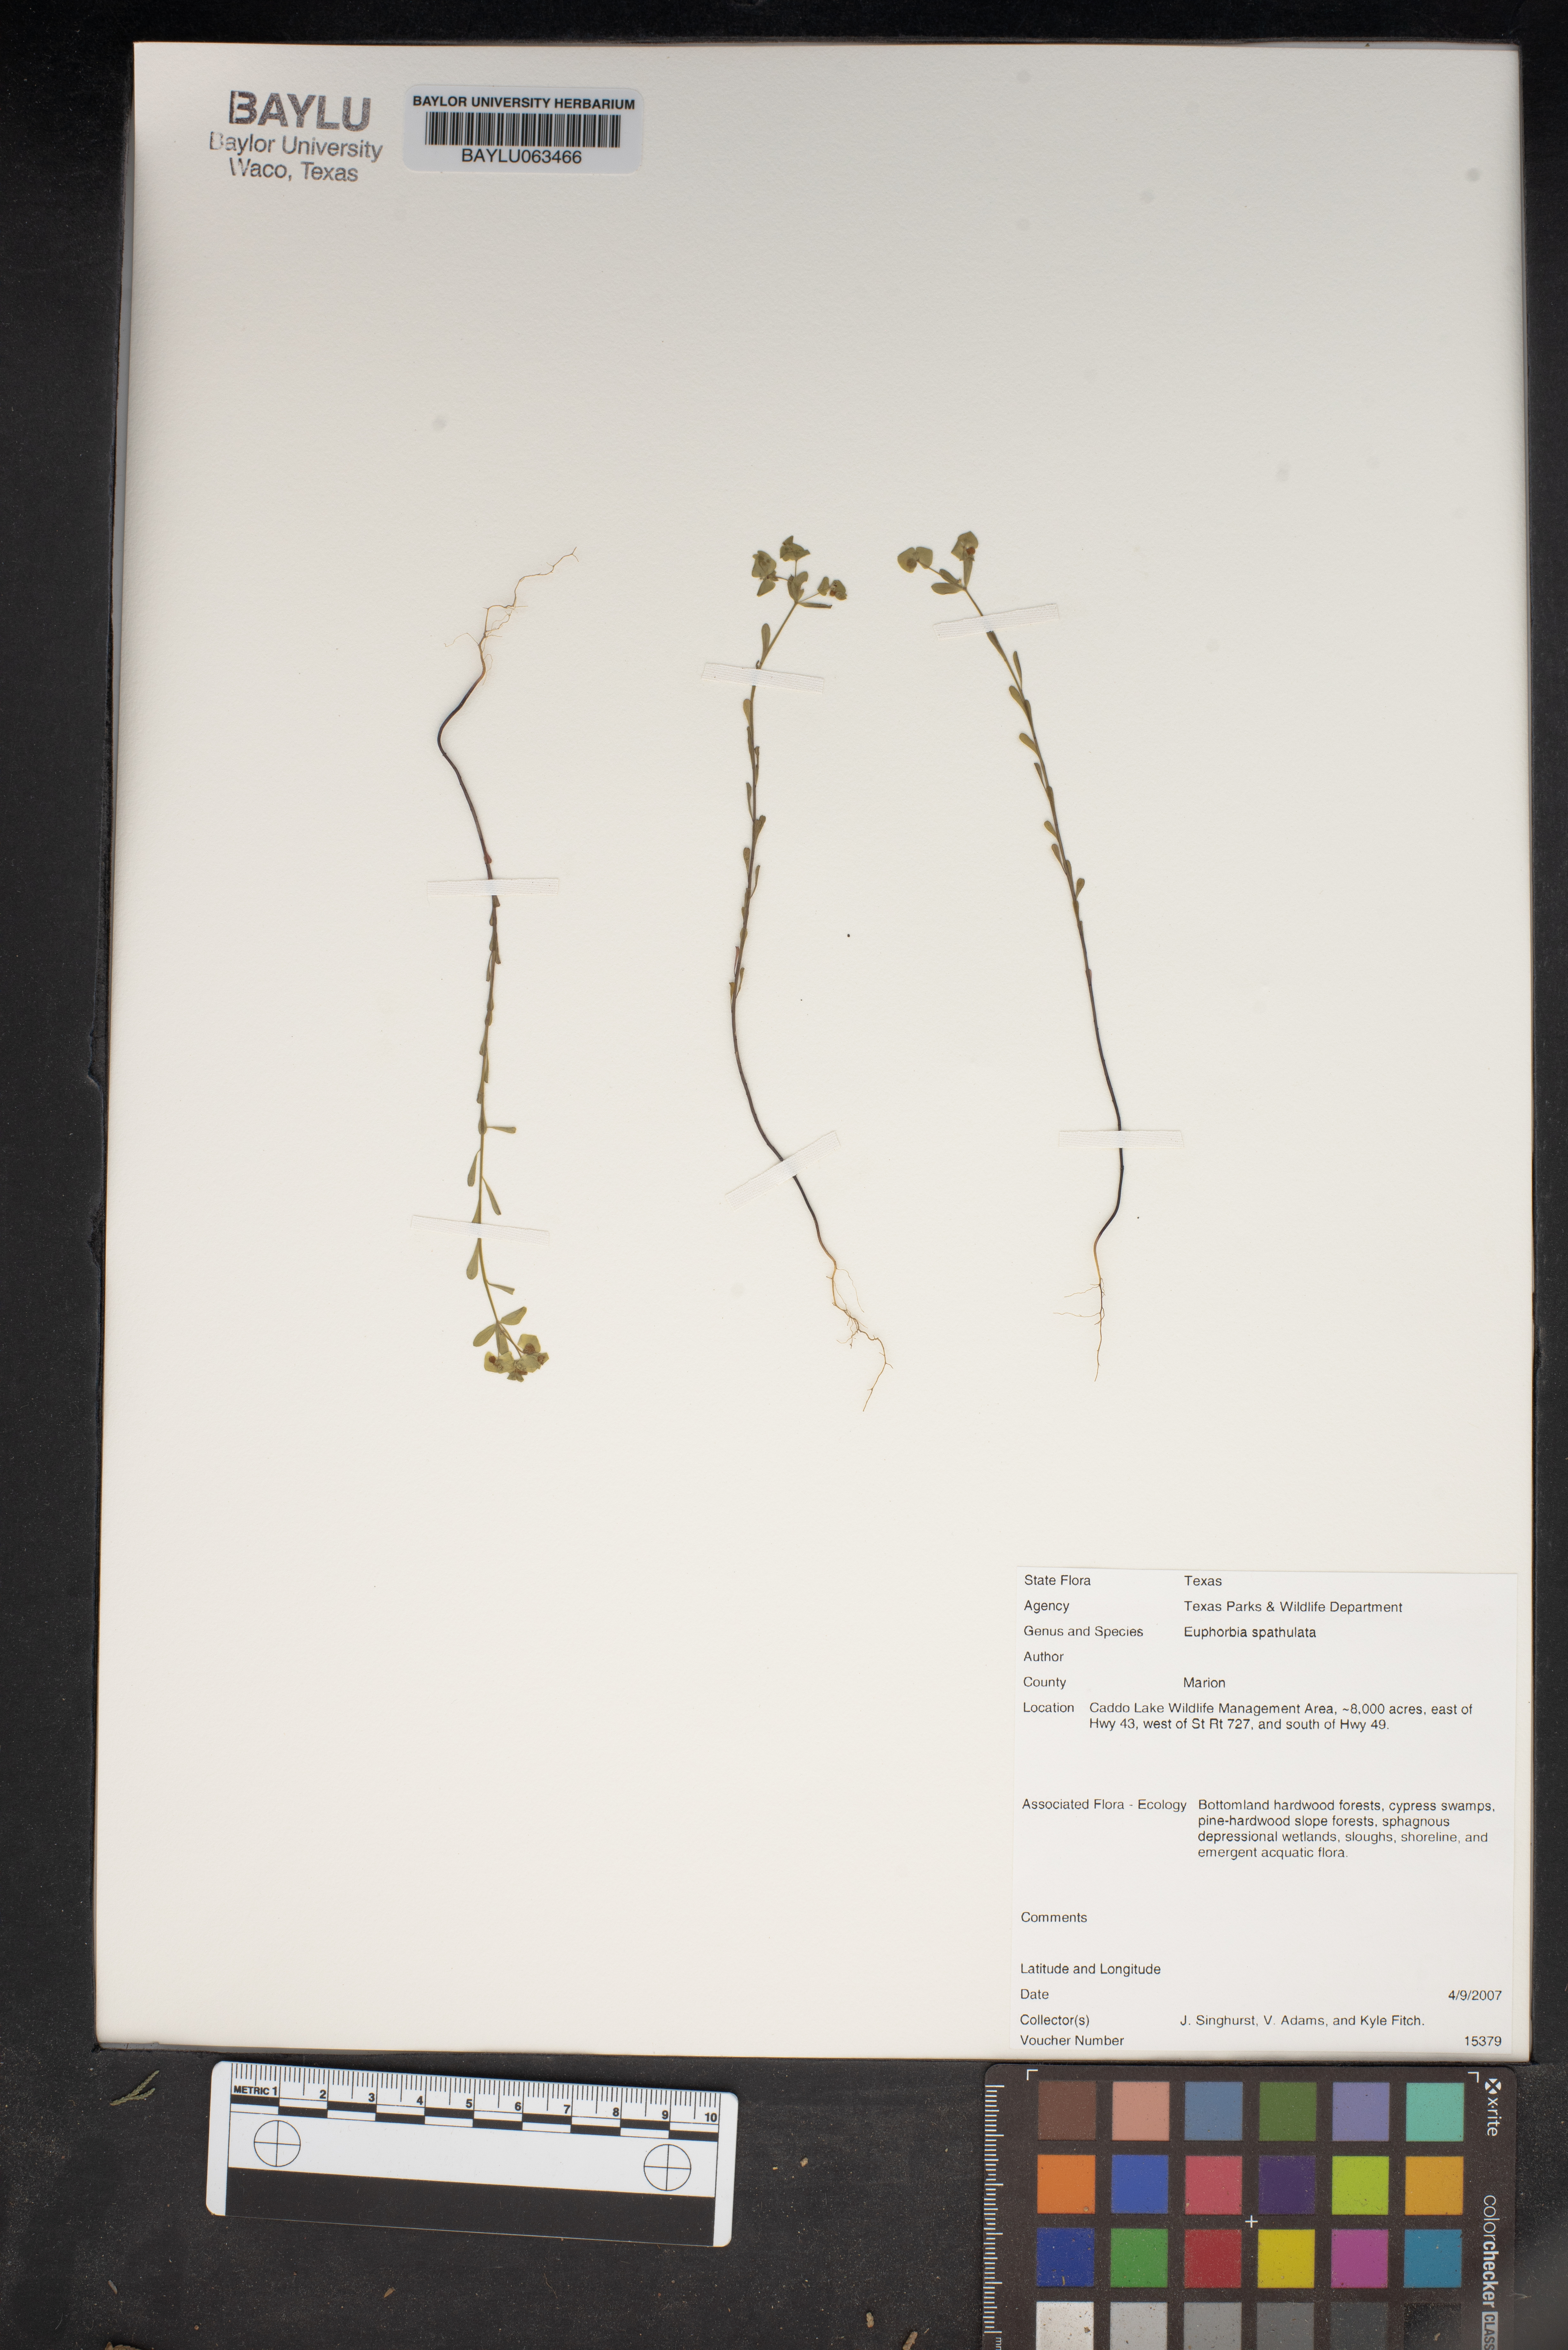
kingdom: Plantae
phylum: Tracheophyta
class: Magnoliopsida
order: Malpighiales
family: Euphorbiaceae
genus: Euphorbia
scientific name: Euphorbia spathulata
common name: Blunt spurge
